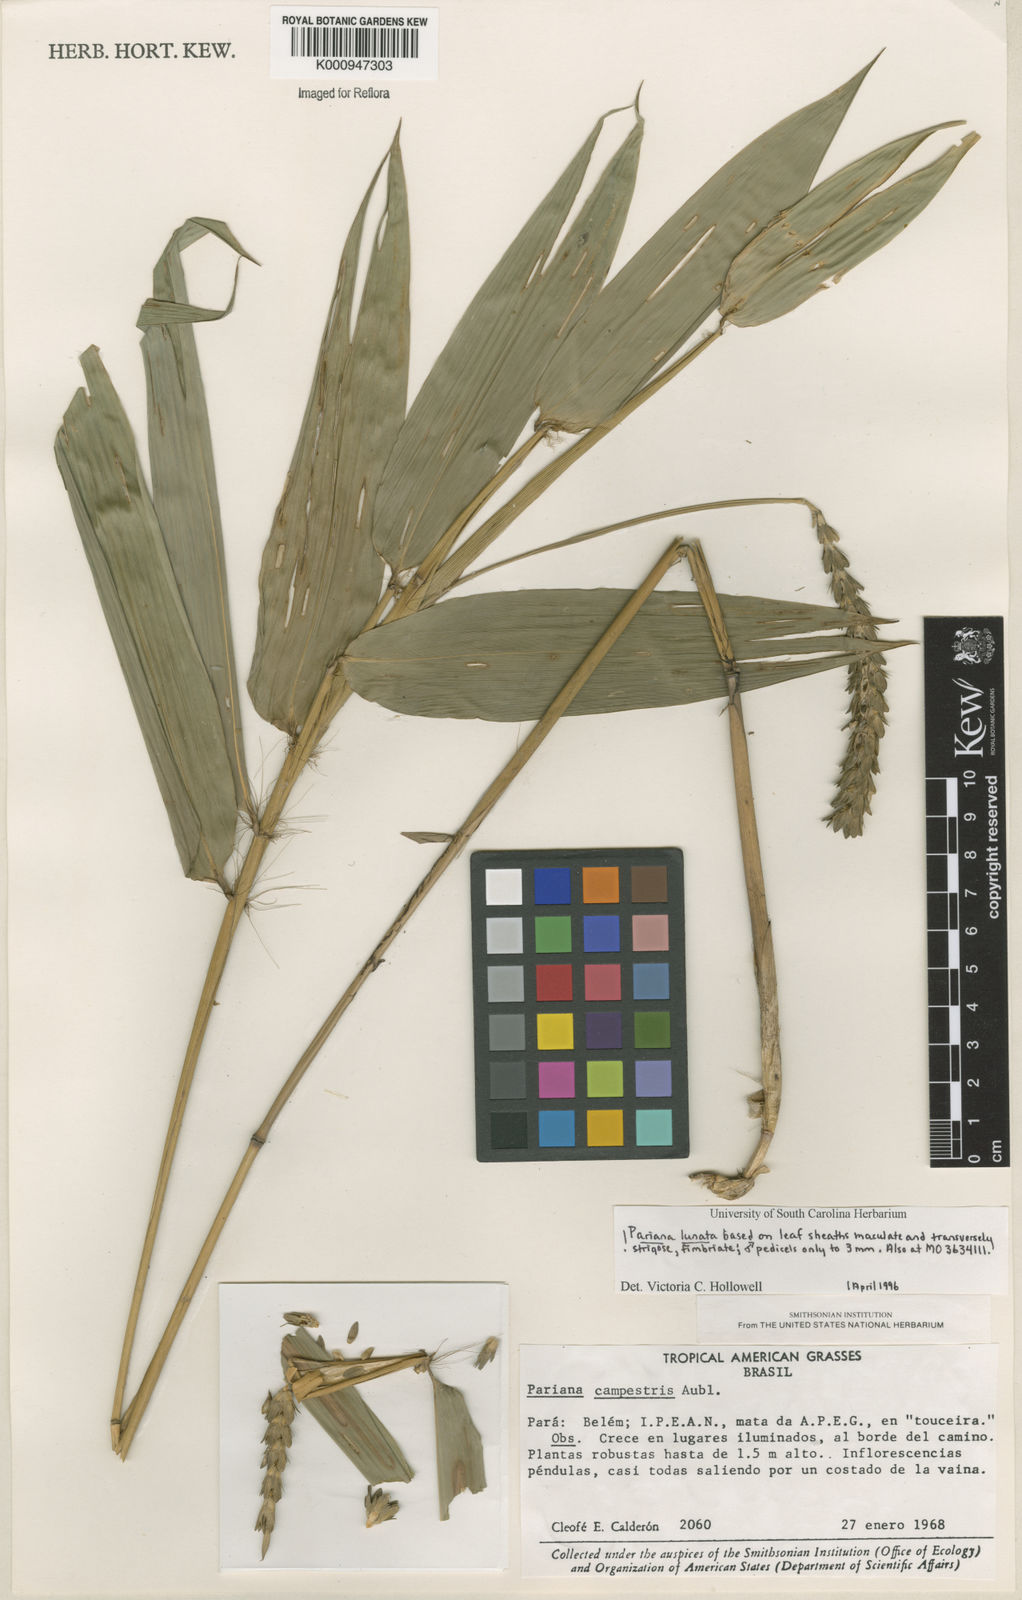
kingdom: Plantae
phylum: Tracheophyta
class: Liliopsida
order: Poales
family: Poaceae
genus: Pariana
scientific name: Pariana lunata
